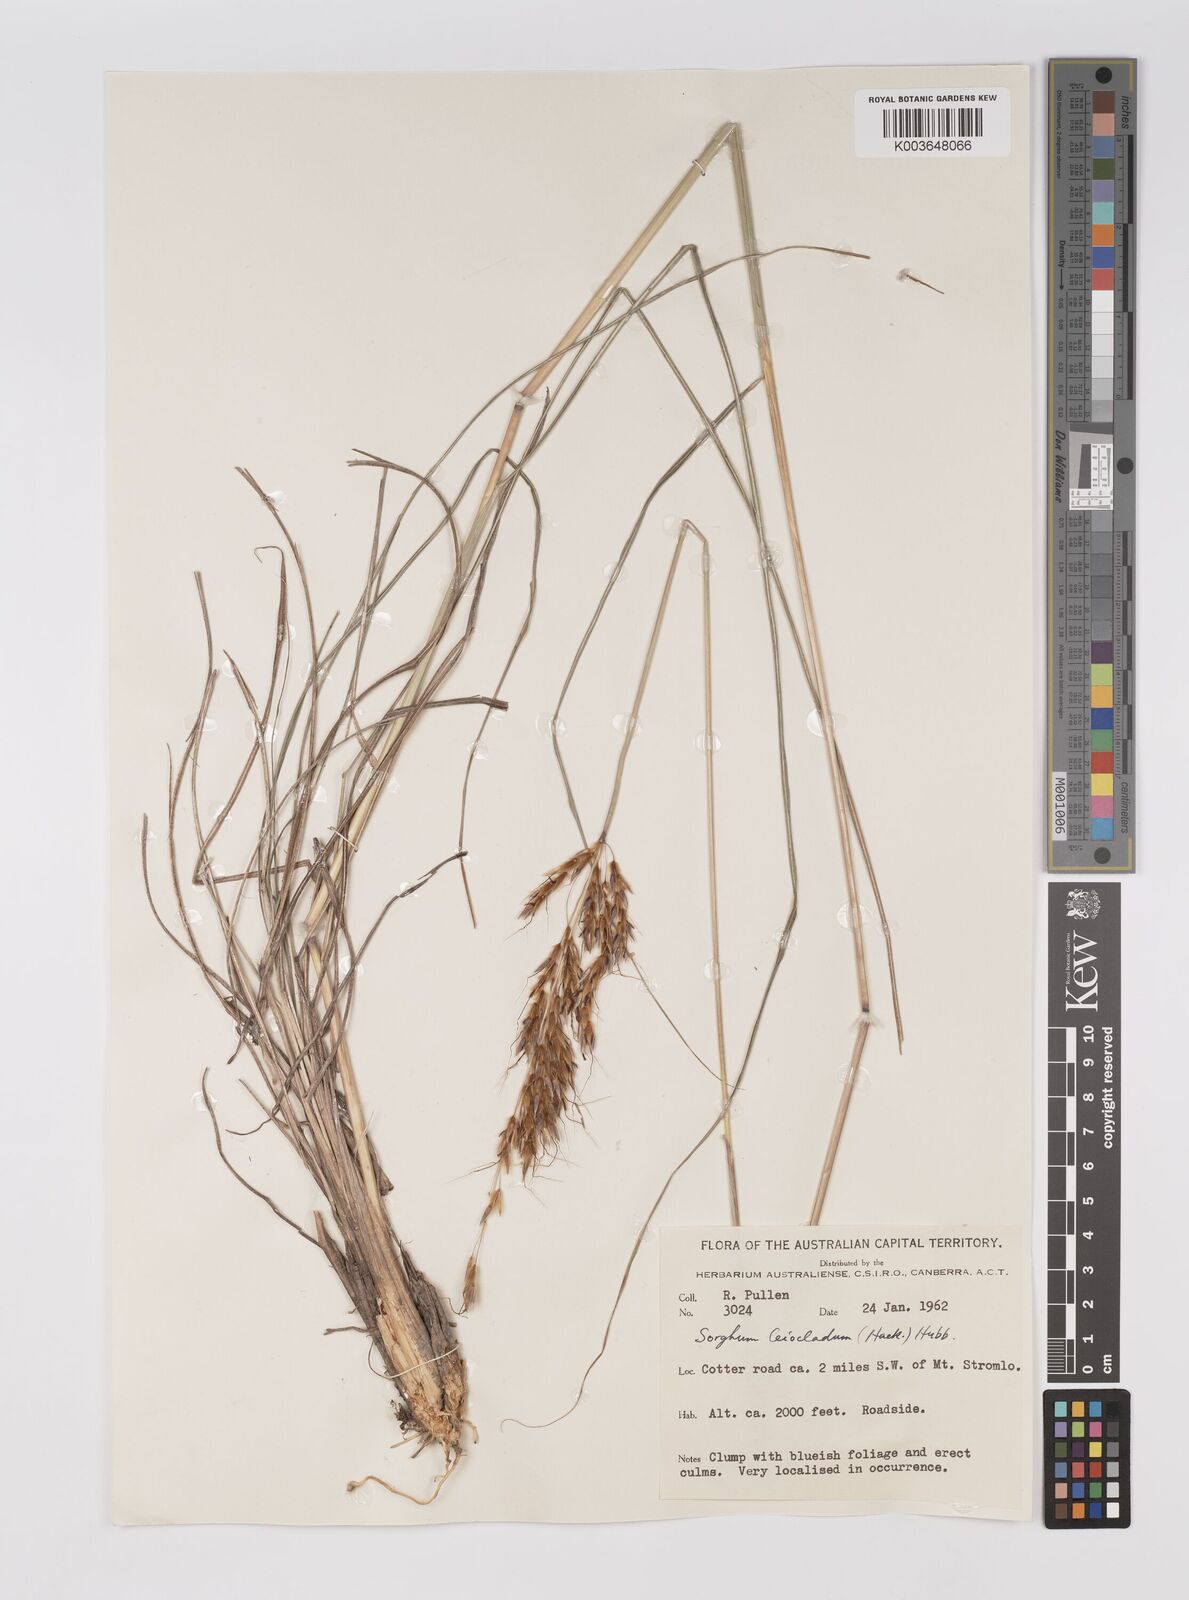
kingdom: Plantae
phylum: Tracheophyta
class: Liliopsida
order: Poales
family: Poaceae
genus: Sarga
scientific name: Sarga leioclada
